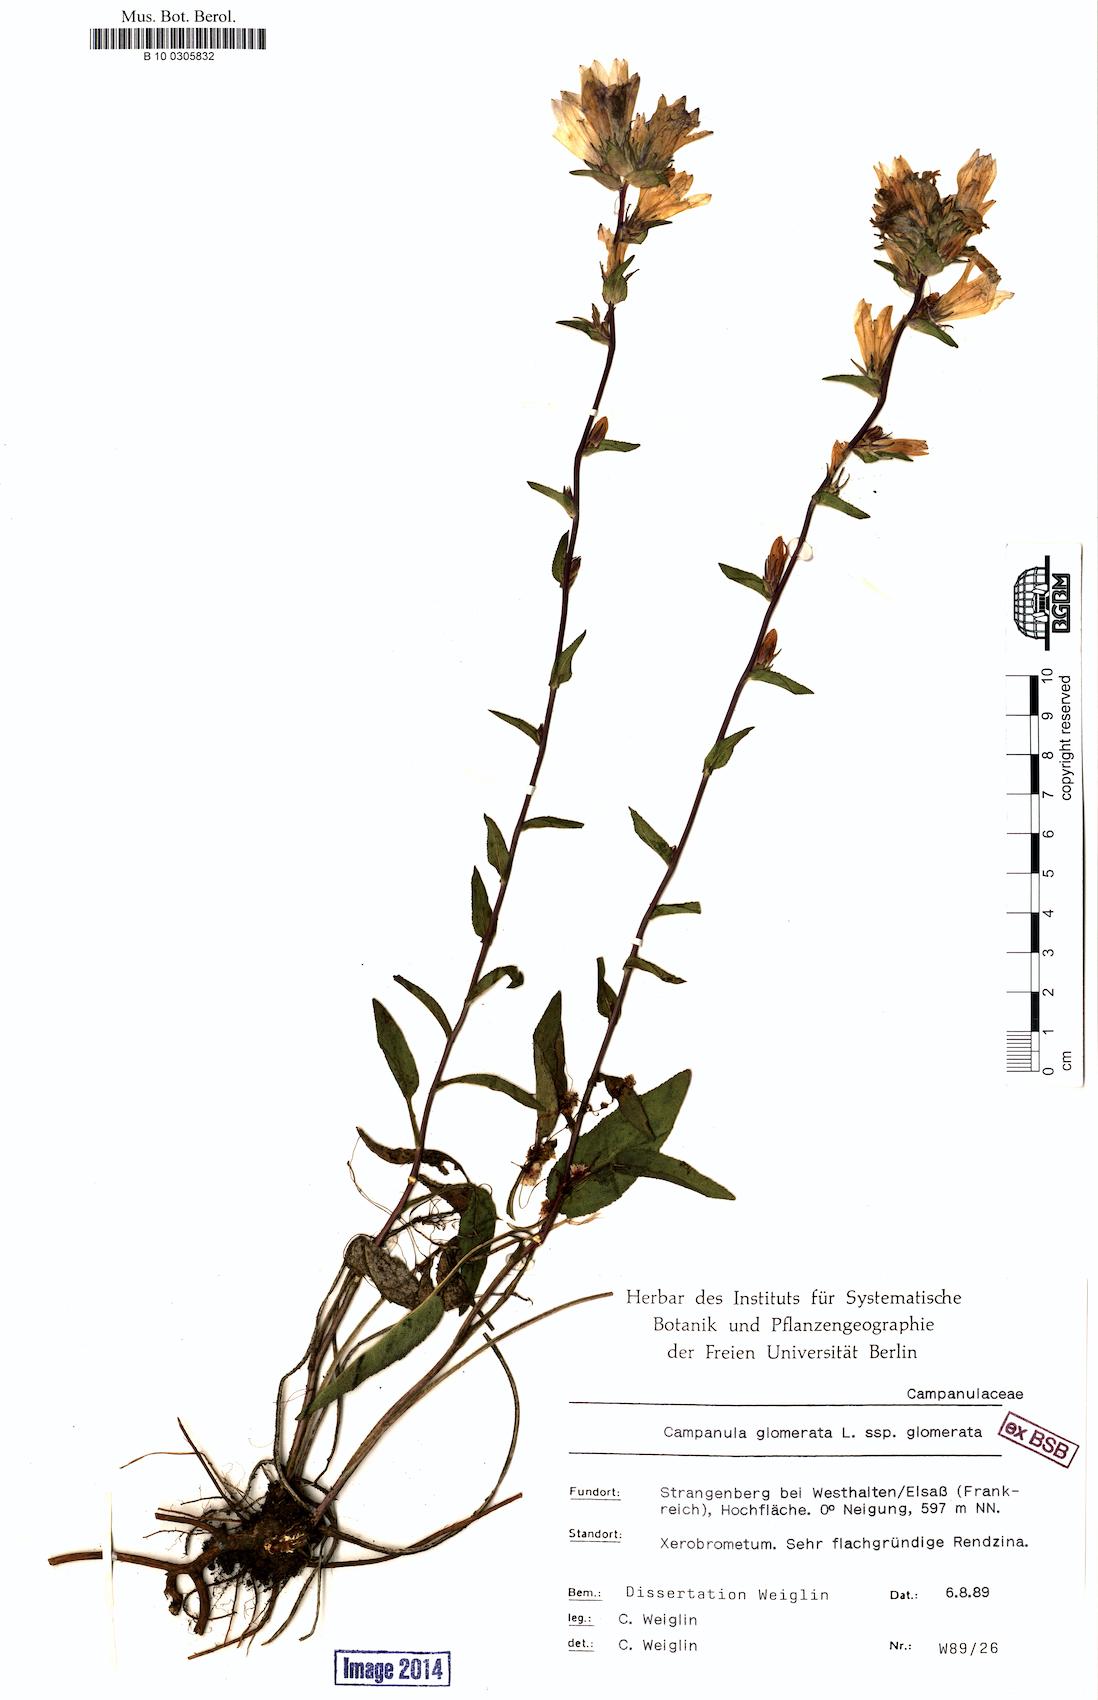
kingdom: Plantae
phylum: Tracheophyta
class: Magnoliopsida
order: Asterales
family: Campanulaceae
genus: Campanula
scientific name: Campanula glomerata
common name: Clustered bellflower
